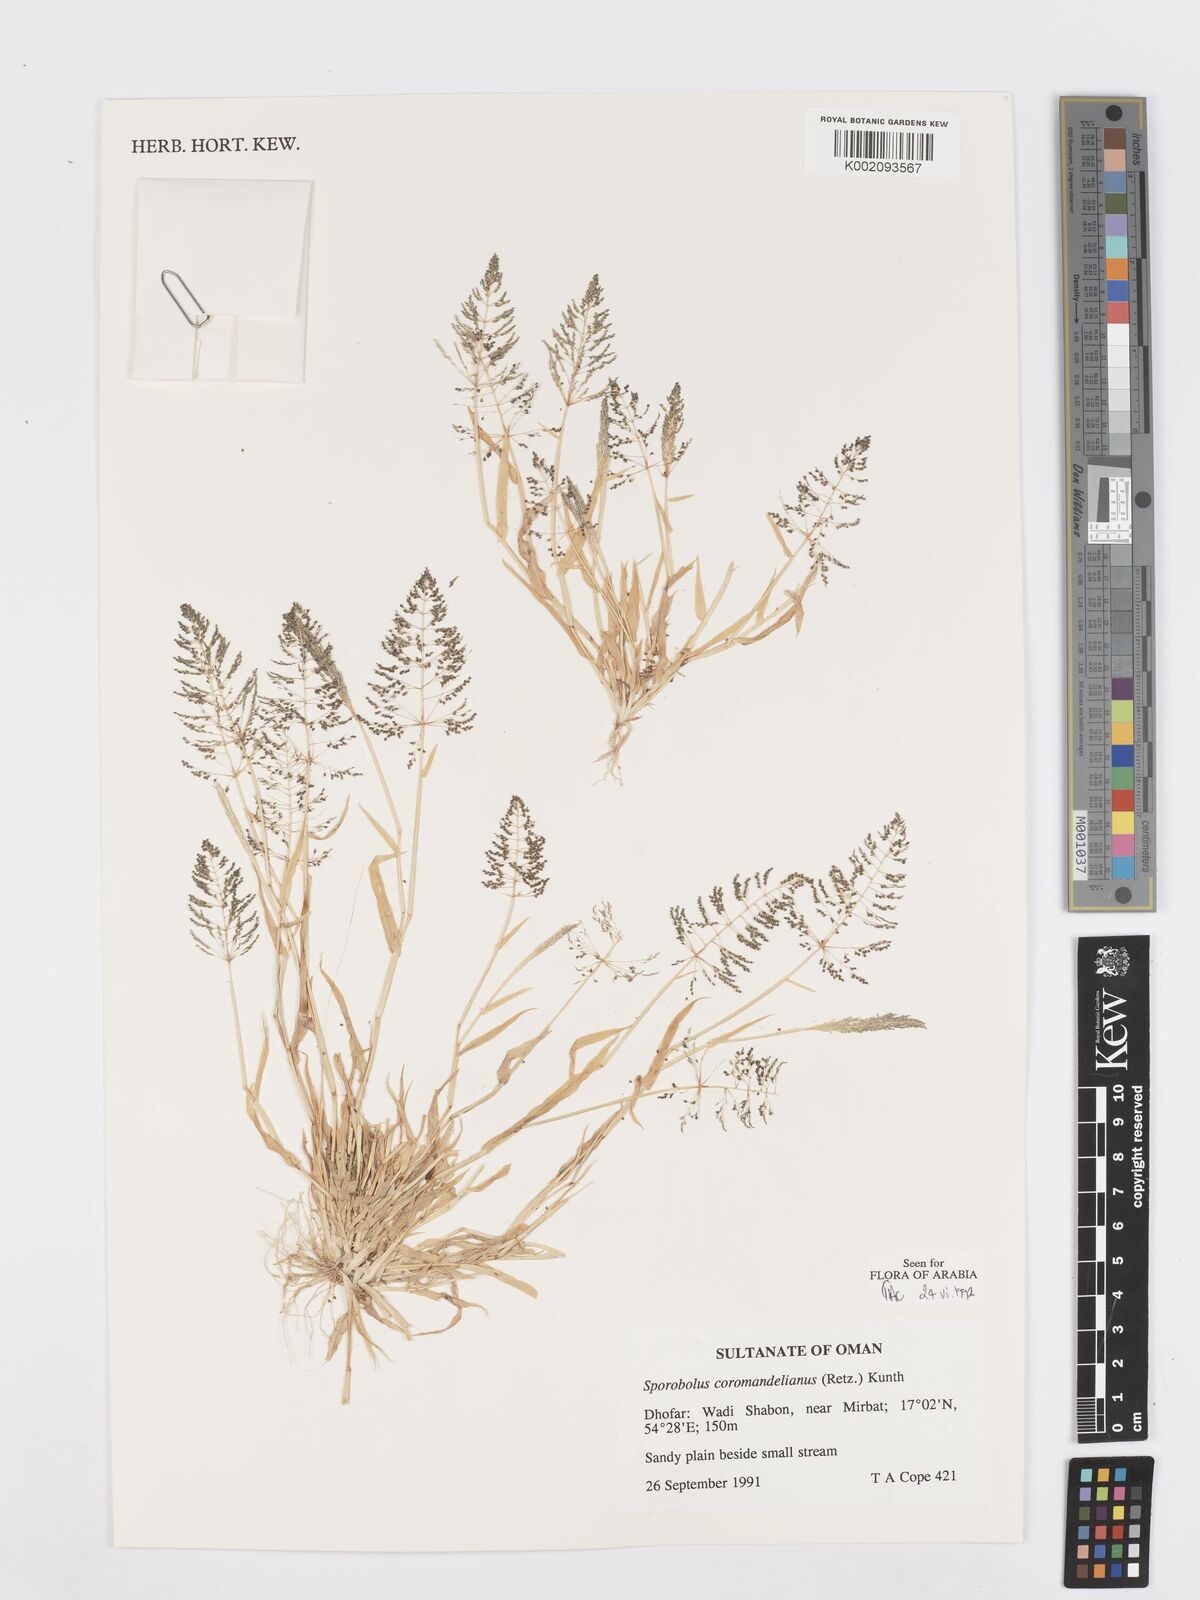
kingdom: Plantae
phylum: Tracheophyta
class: Liliopsida
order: Poales
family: Poaceae
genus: Sporobolus
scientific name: Sporobolus coromandelianus
